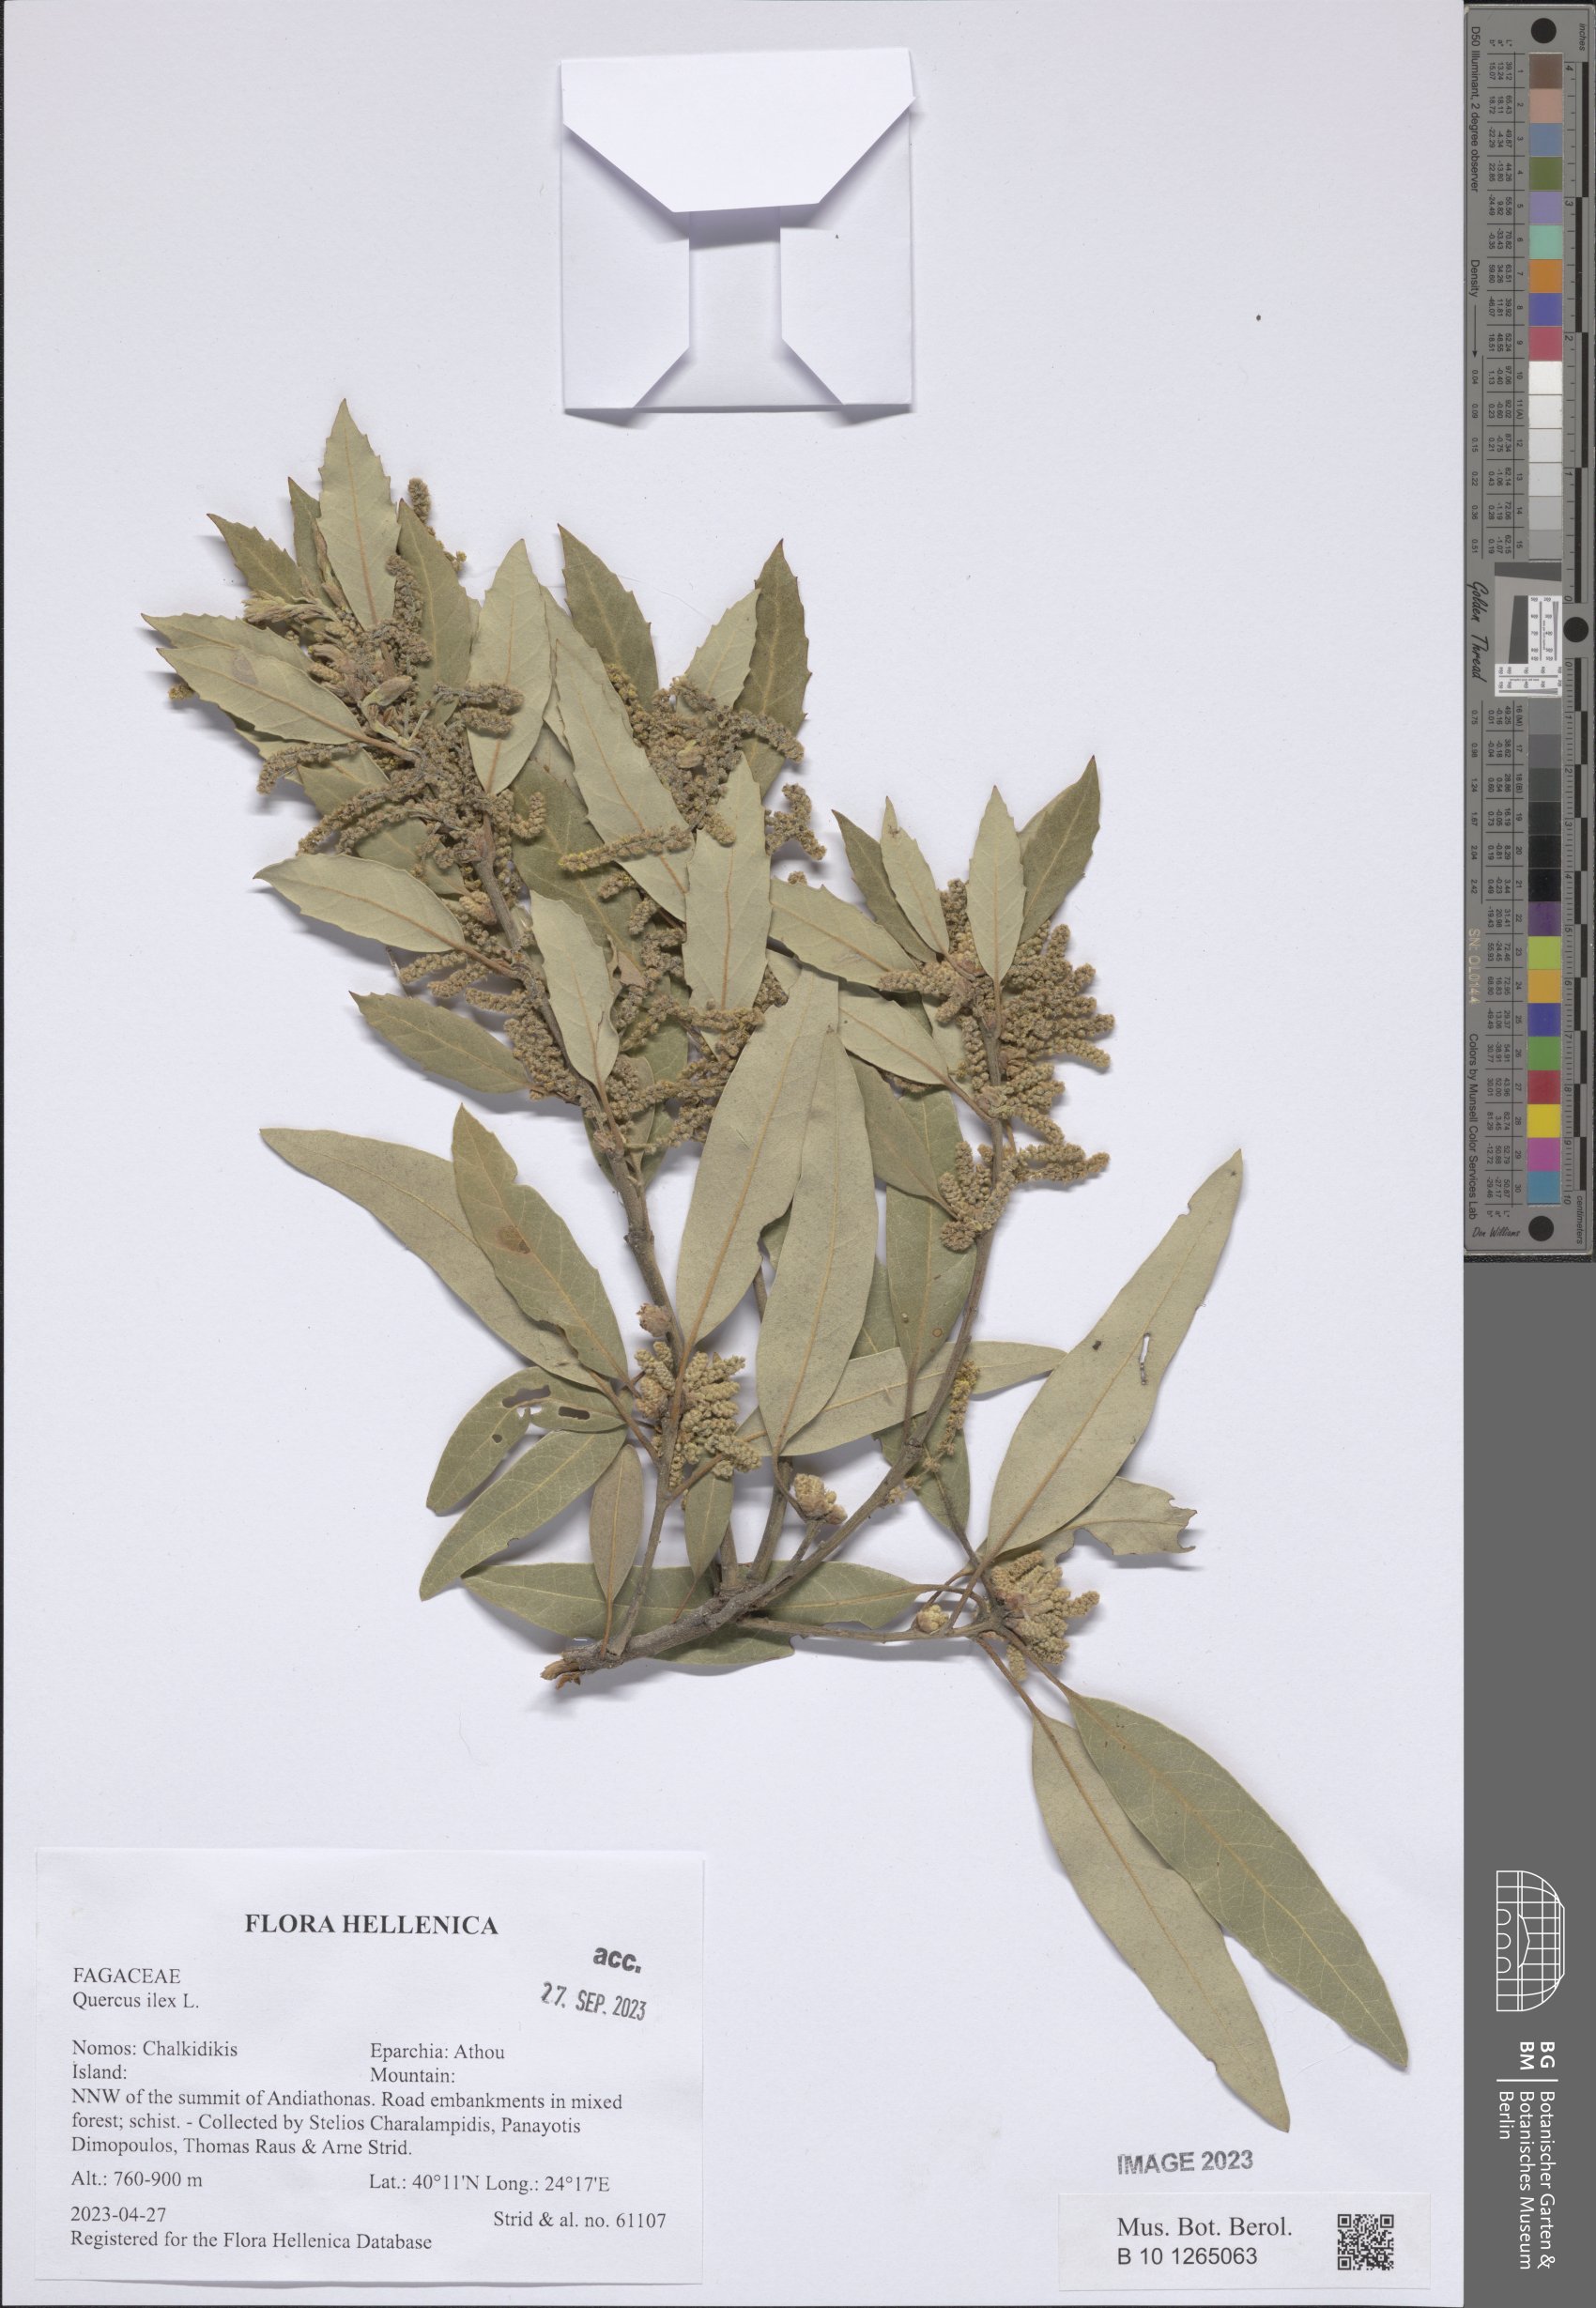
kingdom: Plantae
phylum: Tracheophyta
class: Magnoliopsida
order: Fagales
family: Fagaceae
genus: Quercus
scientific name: Quercus ilex
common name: Evergreen oak
